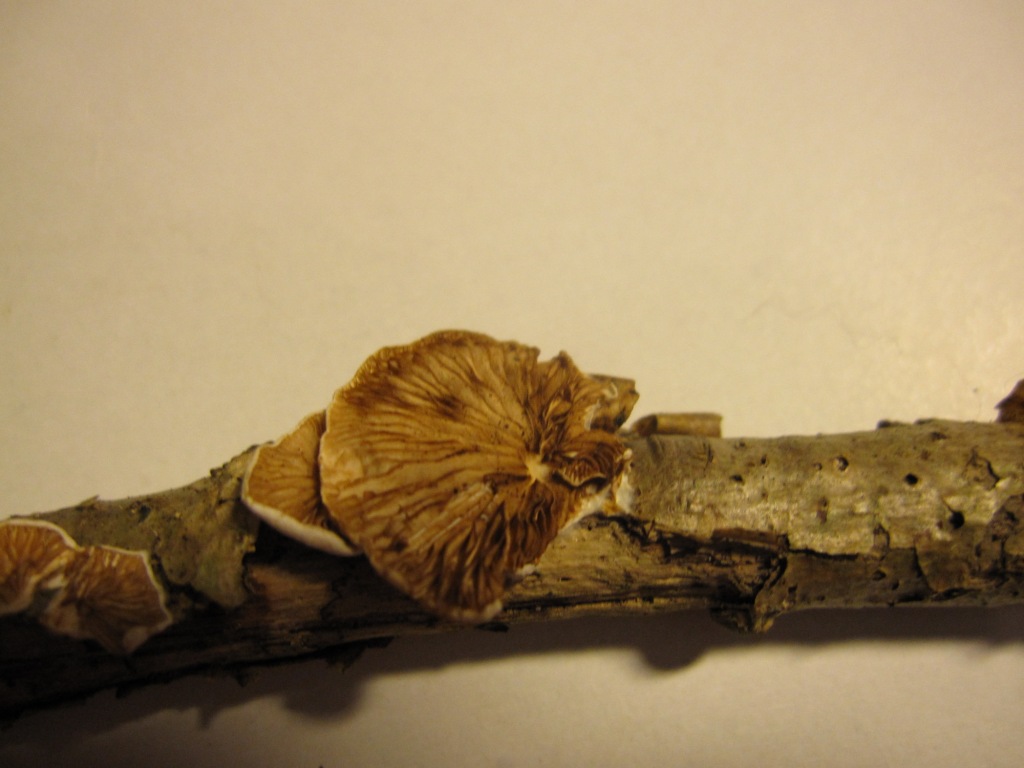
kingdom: Fungi
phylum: Basidiomycota
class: Agaricomycetes
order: Agaricales
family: Crepidotaceae
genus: Crepidotus
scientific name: Crepidotus variabilis
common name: forskelligformet muslingesvamp
